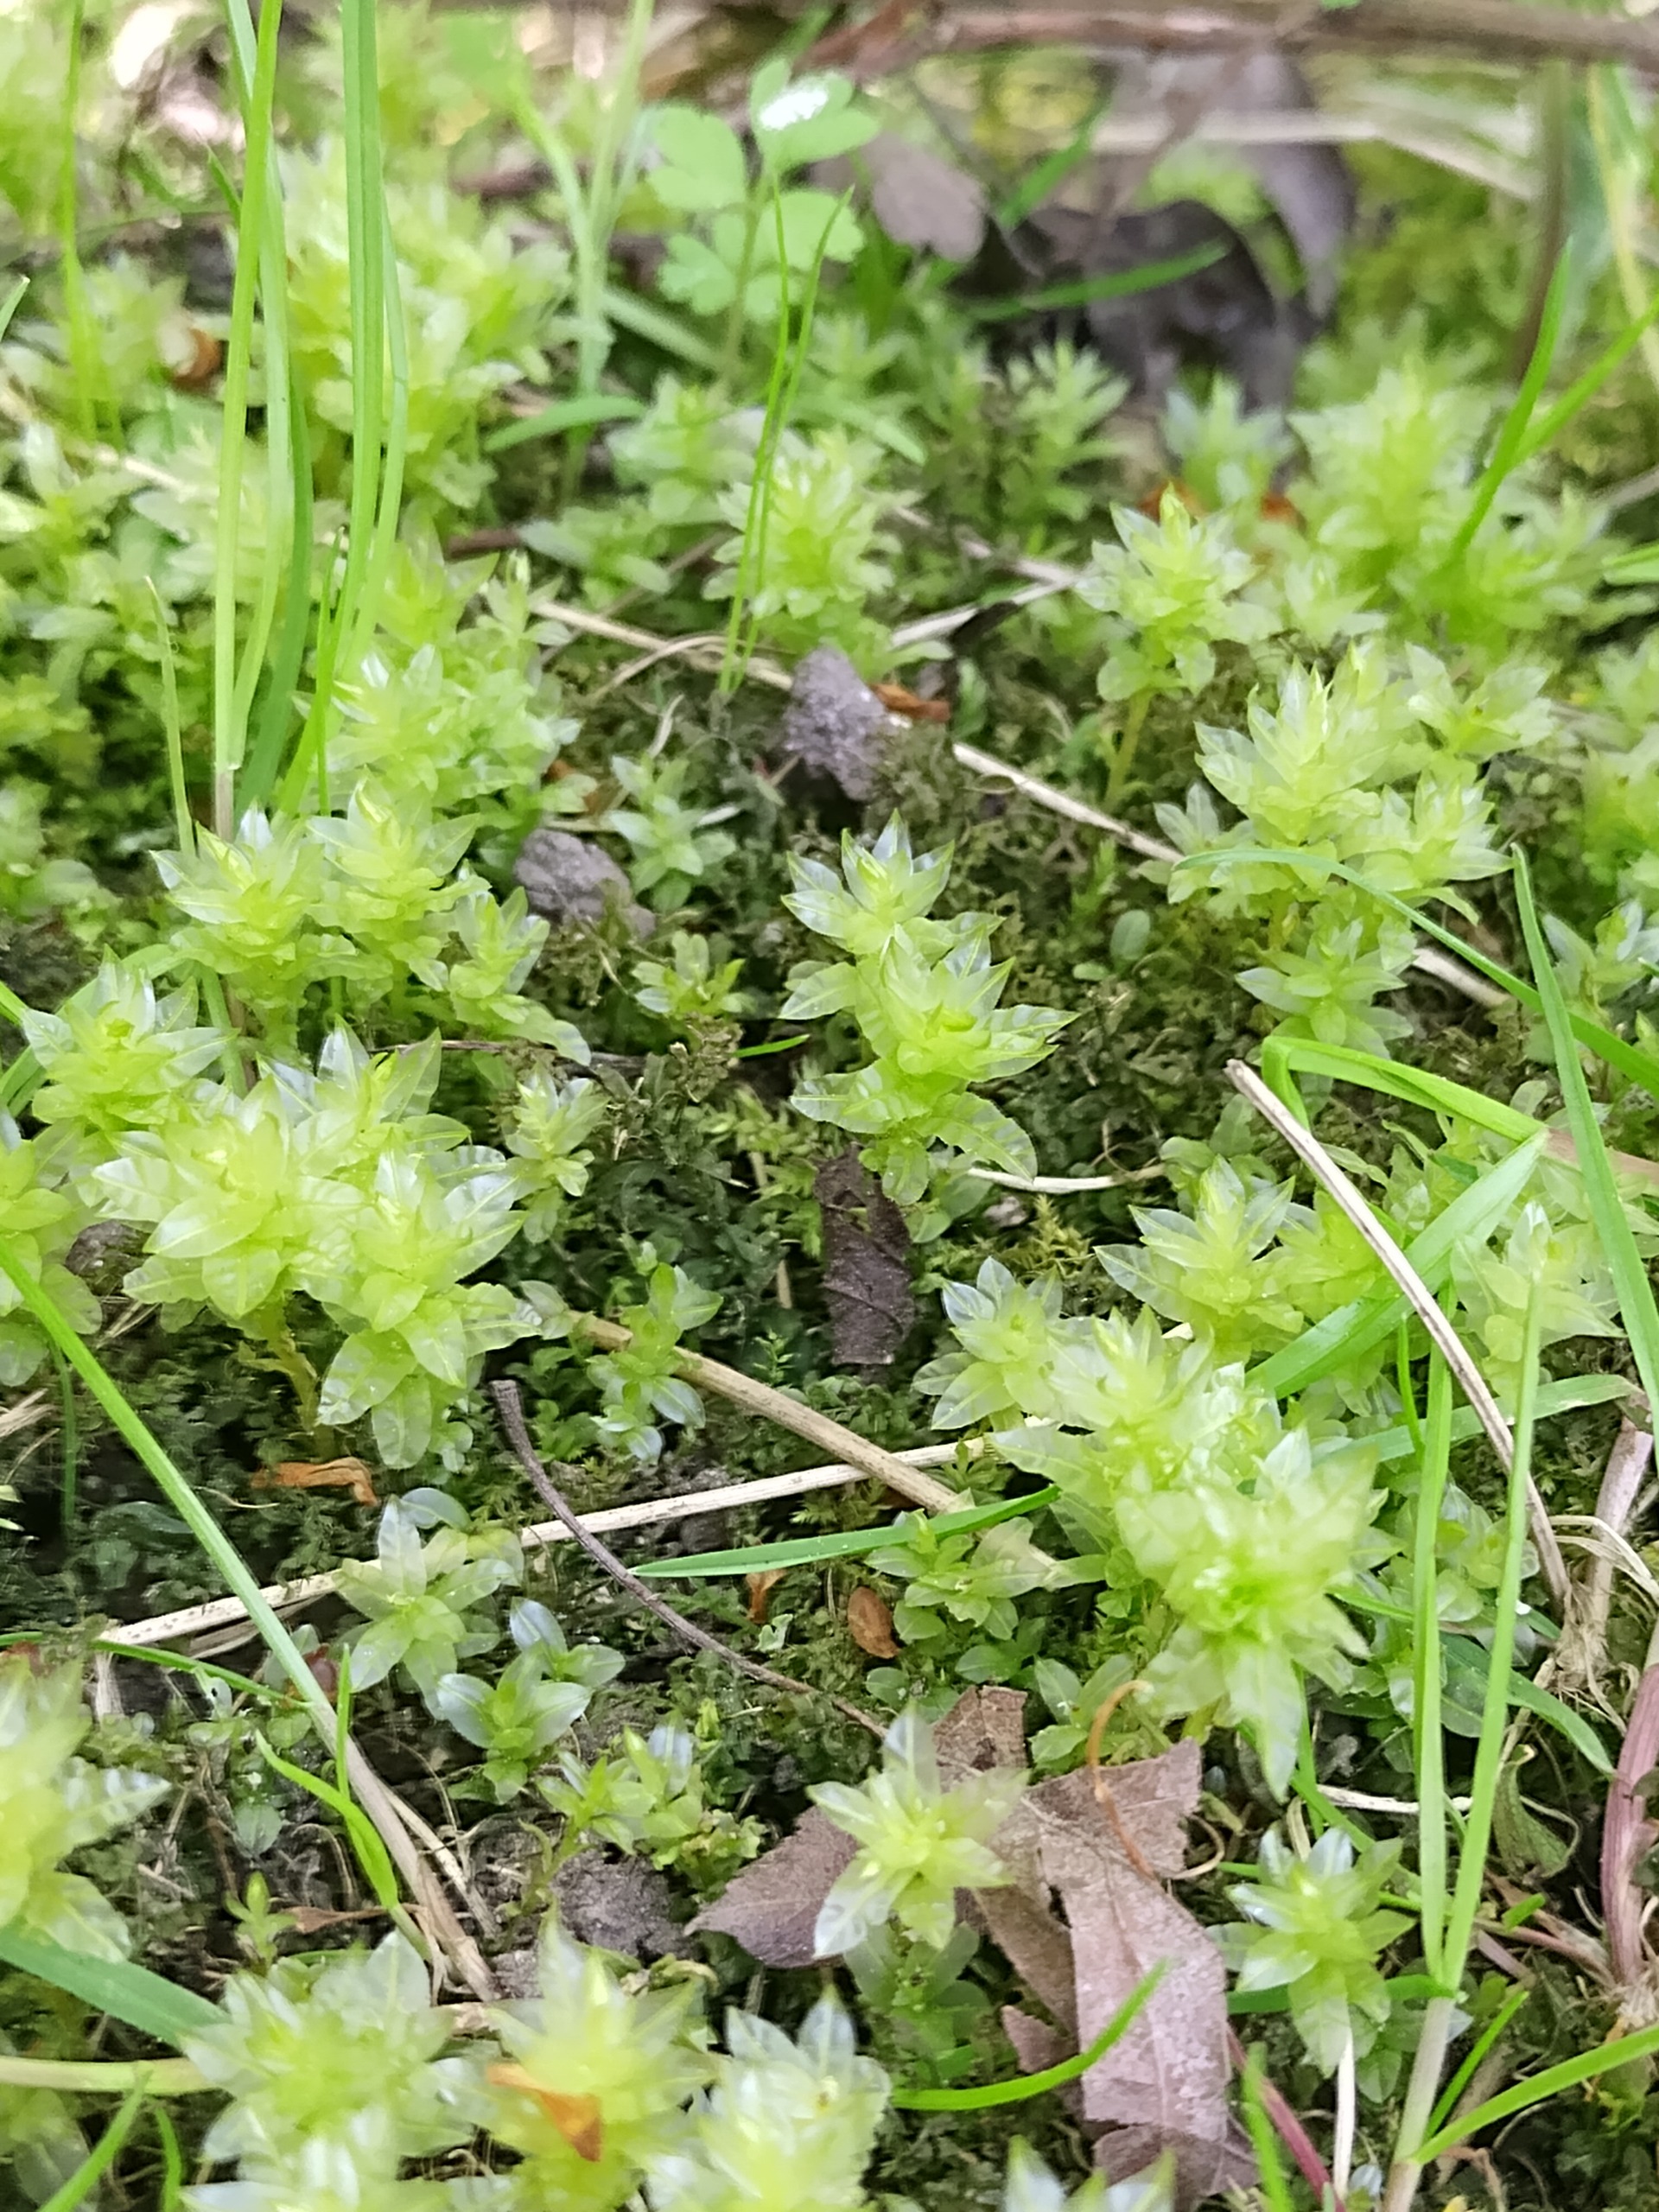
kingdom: Plantae
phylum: Bryophyta
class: Bryopsida
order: Bryales
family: Mniaceae
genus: Plagiomnium
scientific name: Plagiomnium undulatum
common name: Bølget krybstjerne
